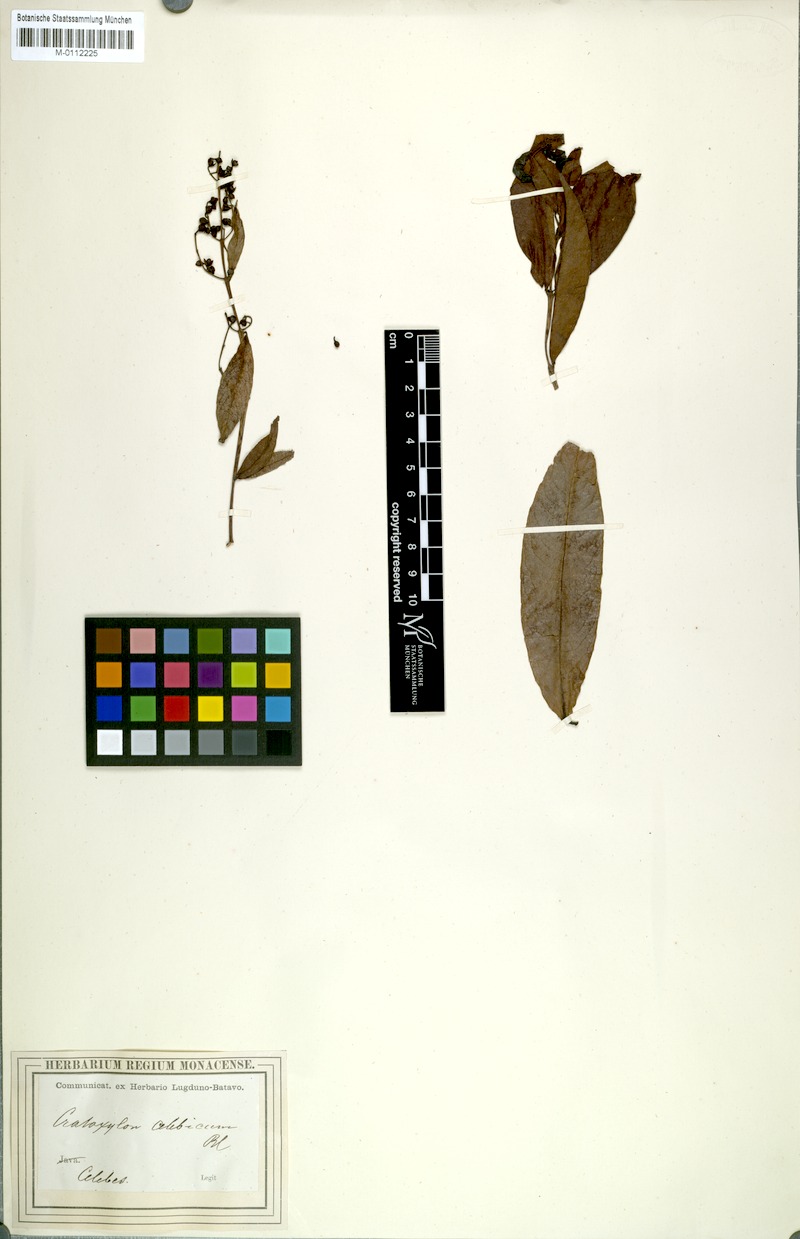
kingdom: Plantae
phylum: Tracheophyta
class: Magnoliopsida
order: Malpighiales
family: Hypericaceae
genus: Cratoxylum
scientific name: Cratoxylum sumatranum
